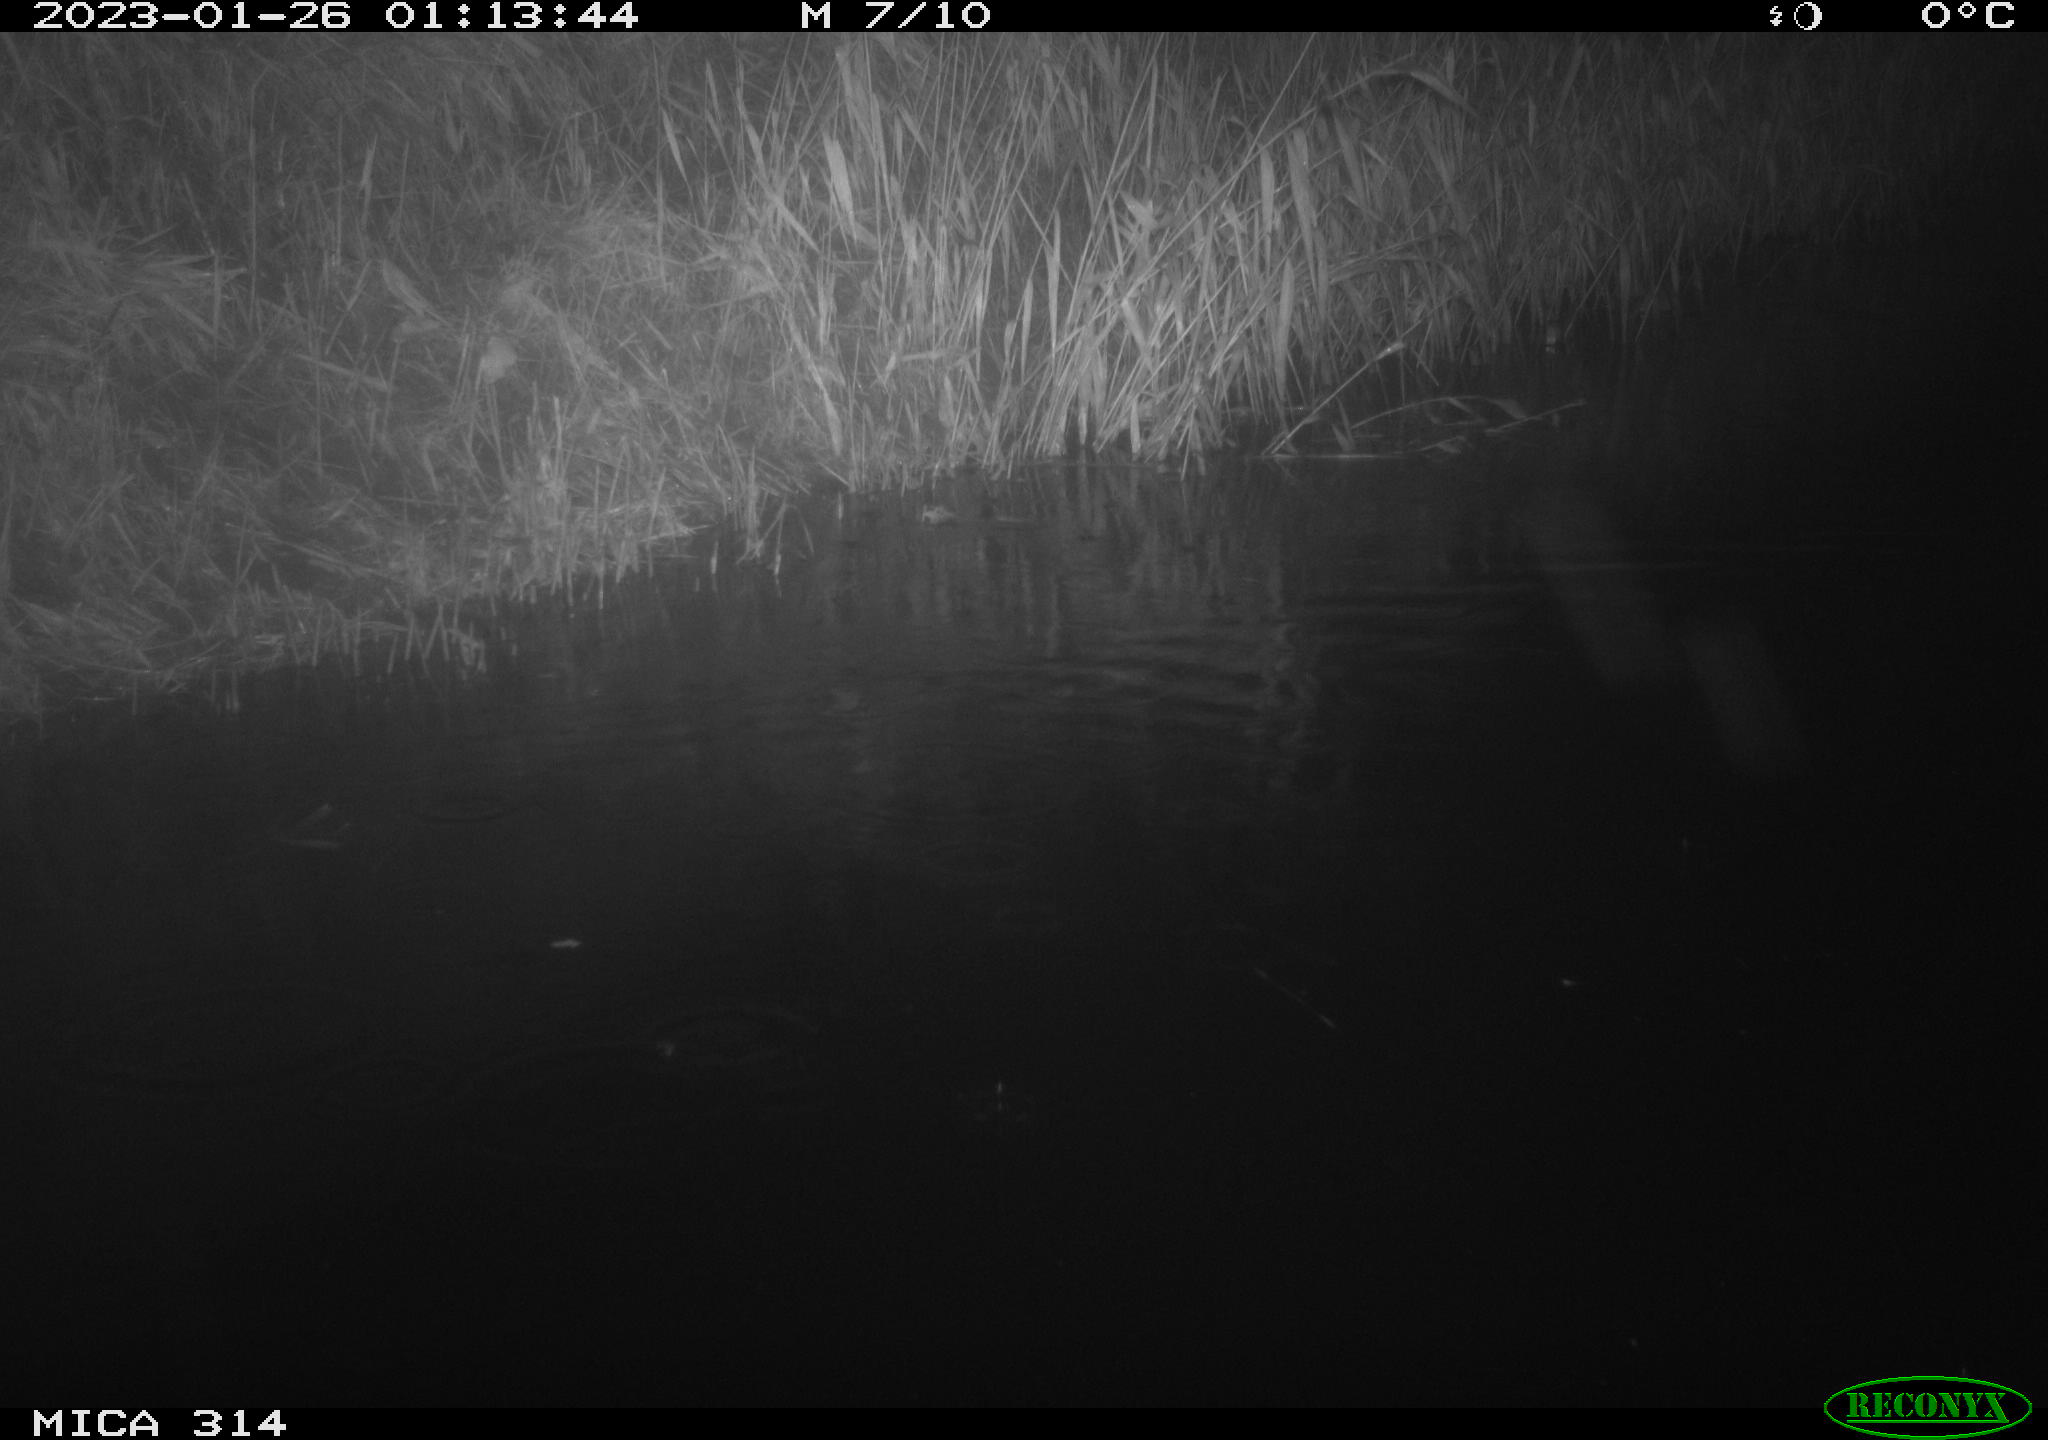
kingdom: Animalia
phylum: Chordata
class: Mammalia
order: Rodentia
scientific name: Rodentia
